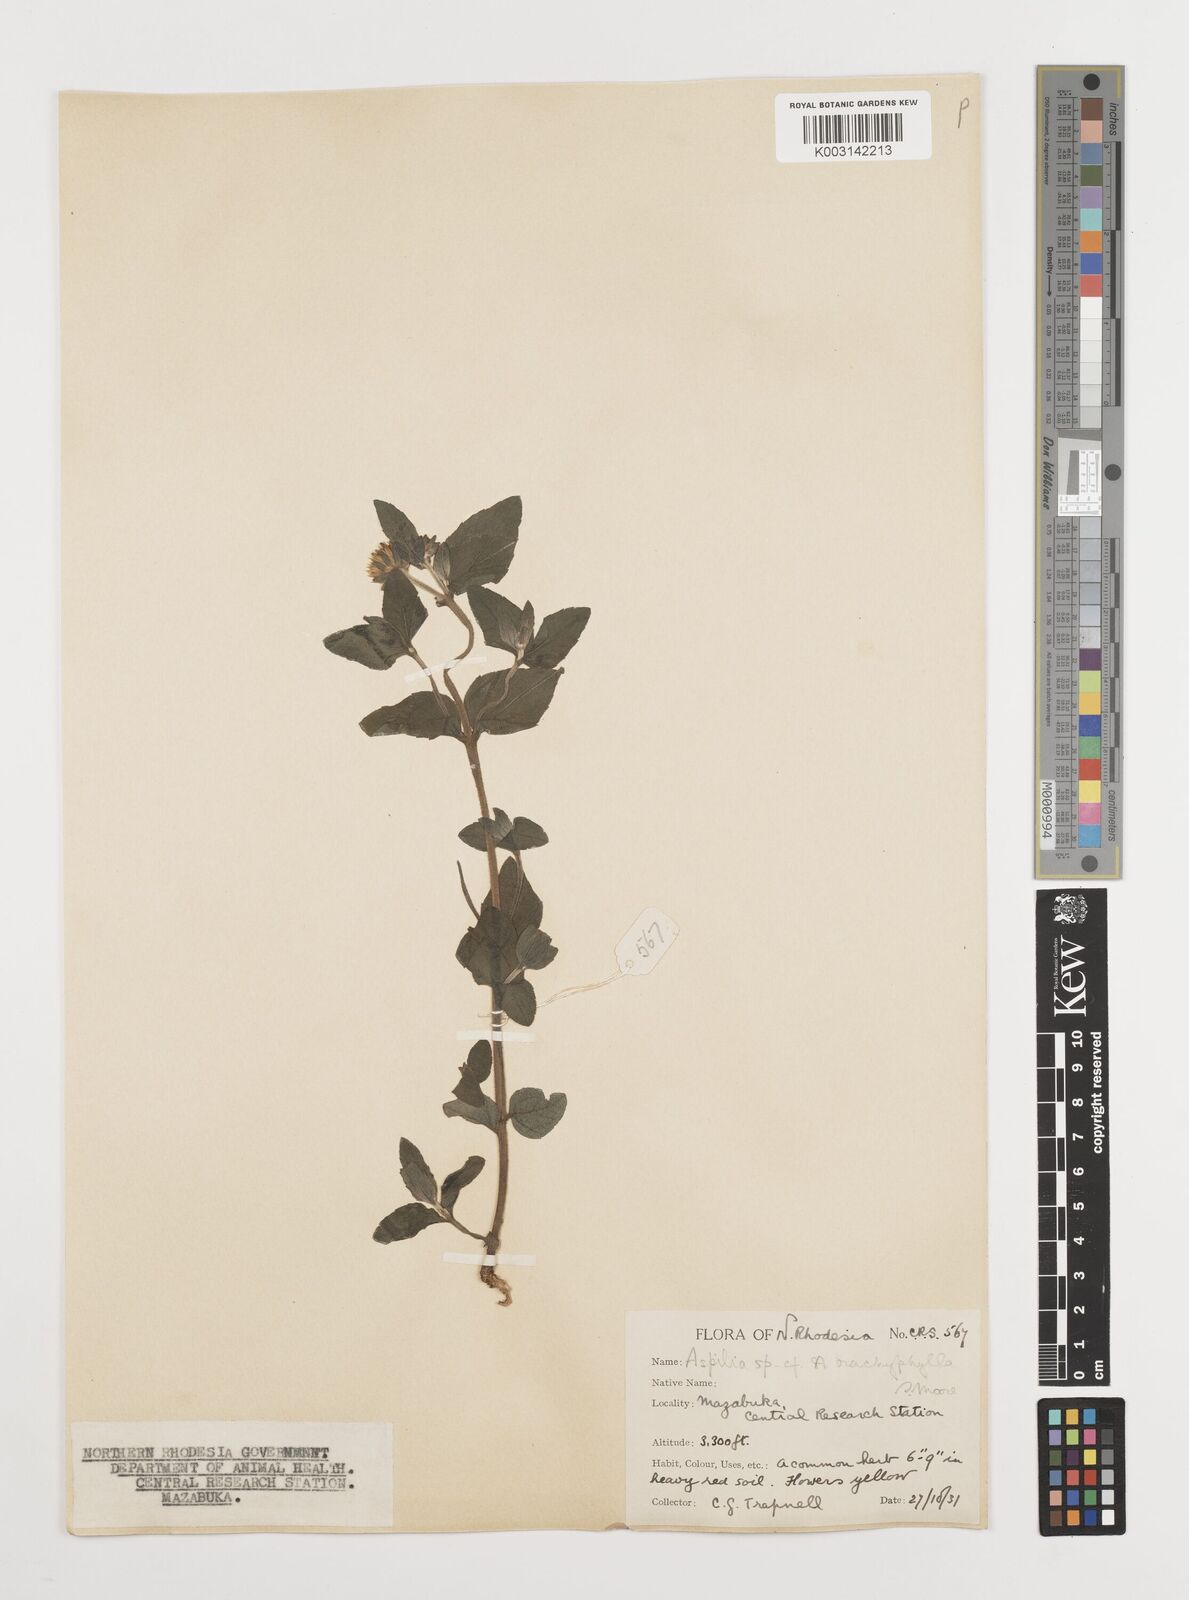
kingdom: Plantae
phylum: Tracheophyta
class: Magnoliopsida
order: Asterales
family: Asteraceae
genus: Aspilia
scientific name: Aspilia pluriseta
